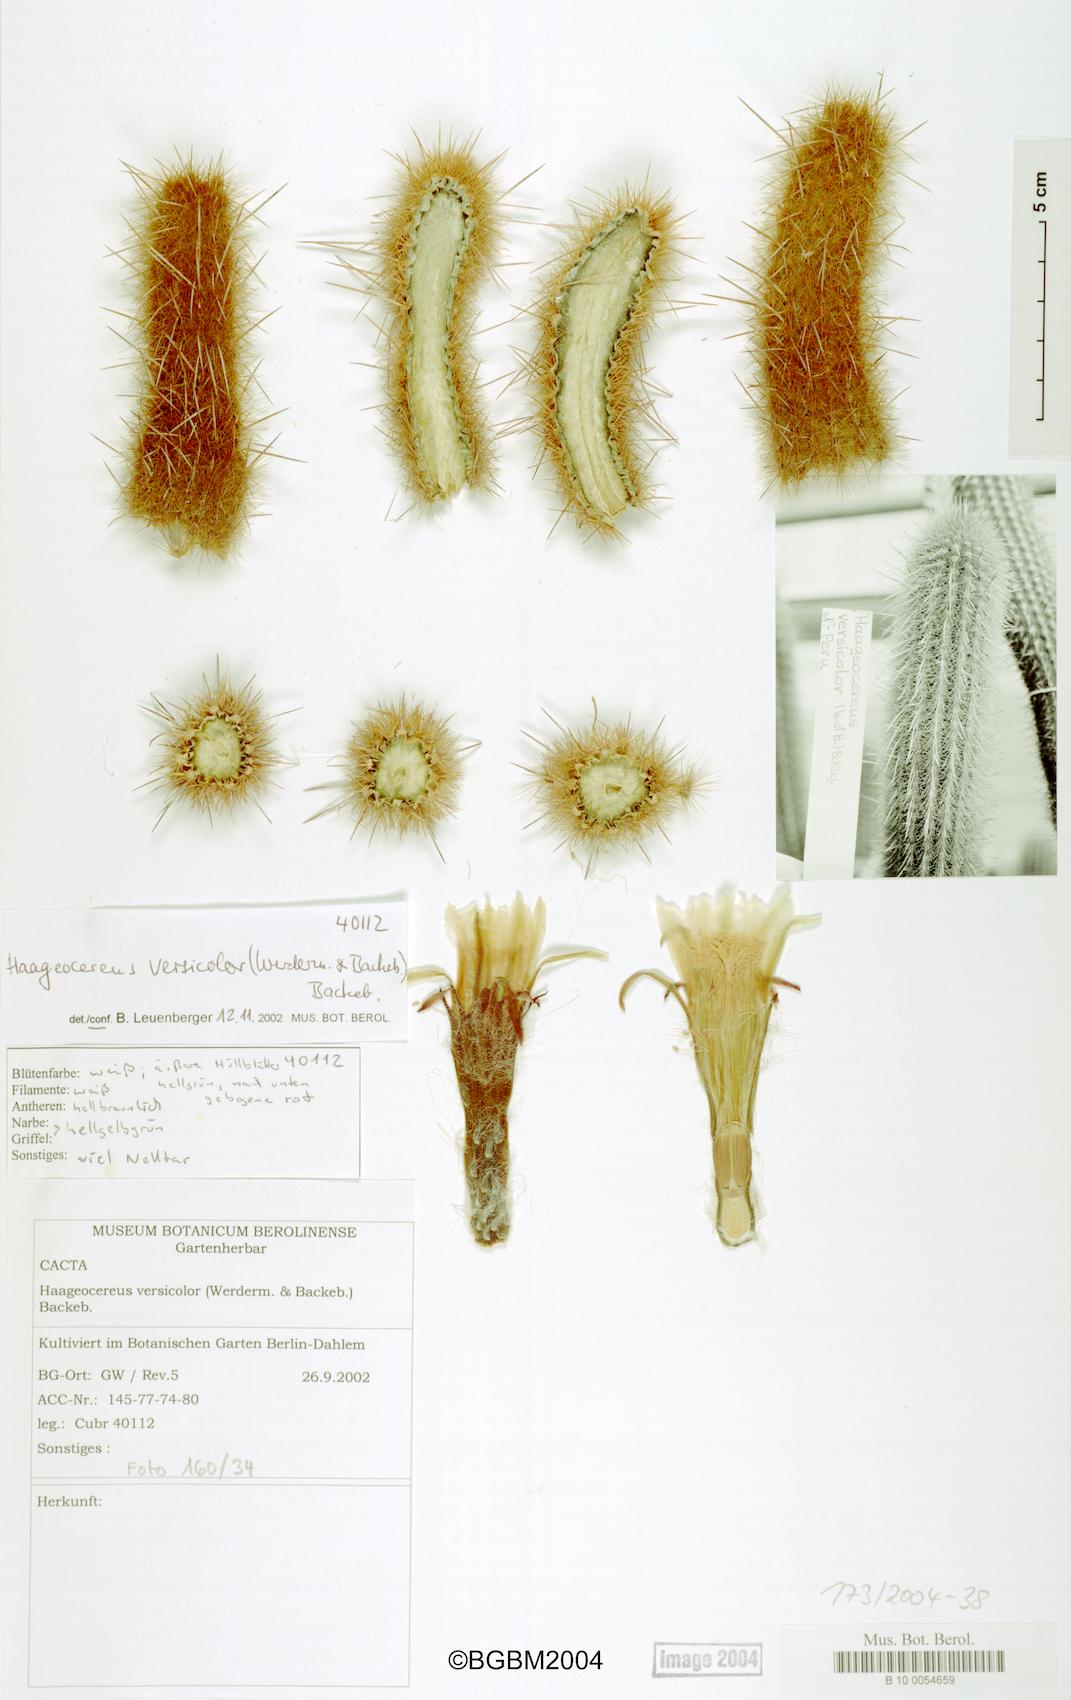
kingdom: Plantae
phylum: Tracheophyta
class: Magnoliopsida
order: Caryophyllales
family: Cactaceae
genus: Haageocereus
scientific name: Haageocereus versicolor
